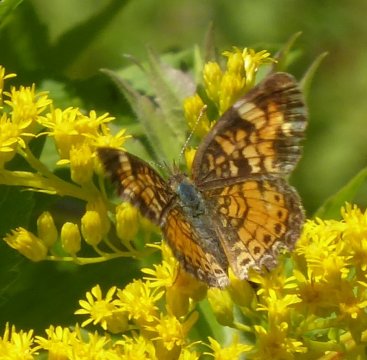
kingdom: Animalia
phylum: Arthropoda
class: Insecta
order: Lepidoptera
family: Nymphalidae
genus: Phyciodes
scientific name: Phyciodes
